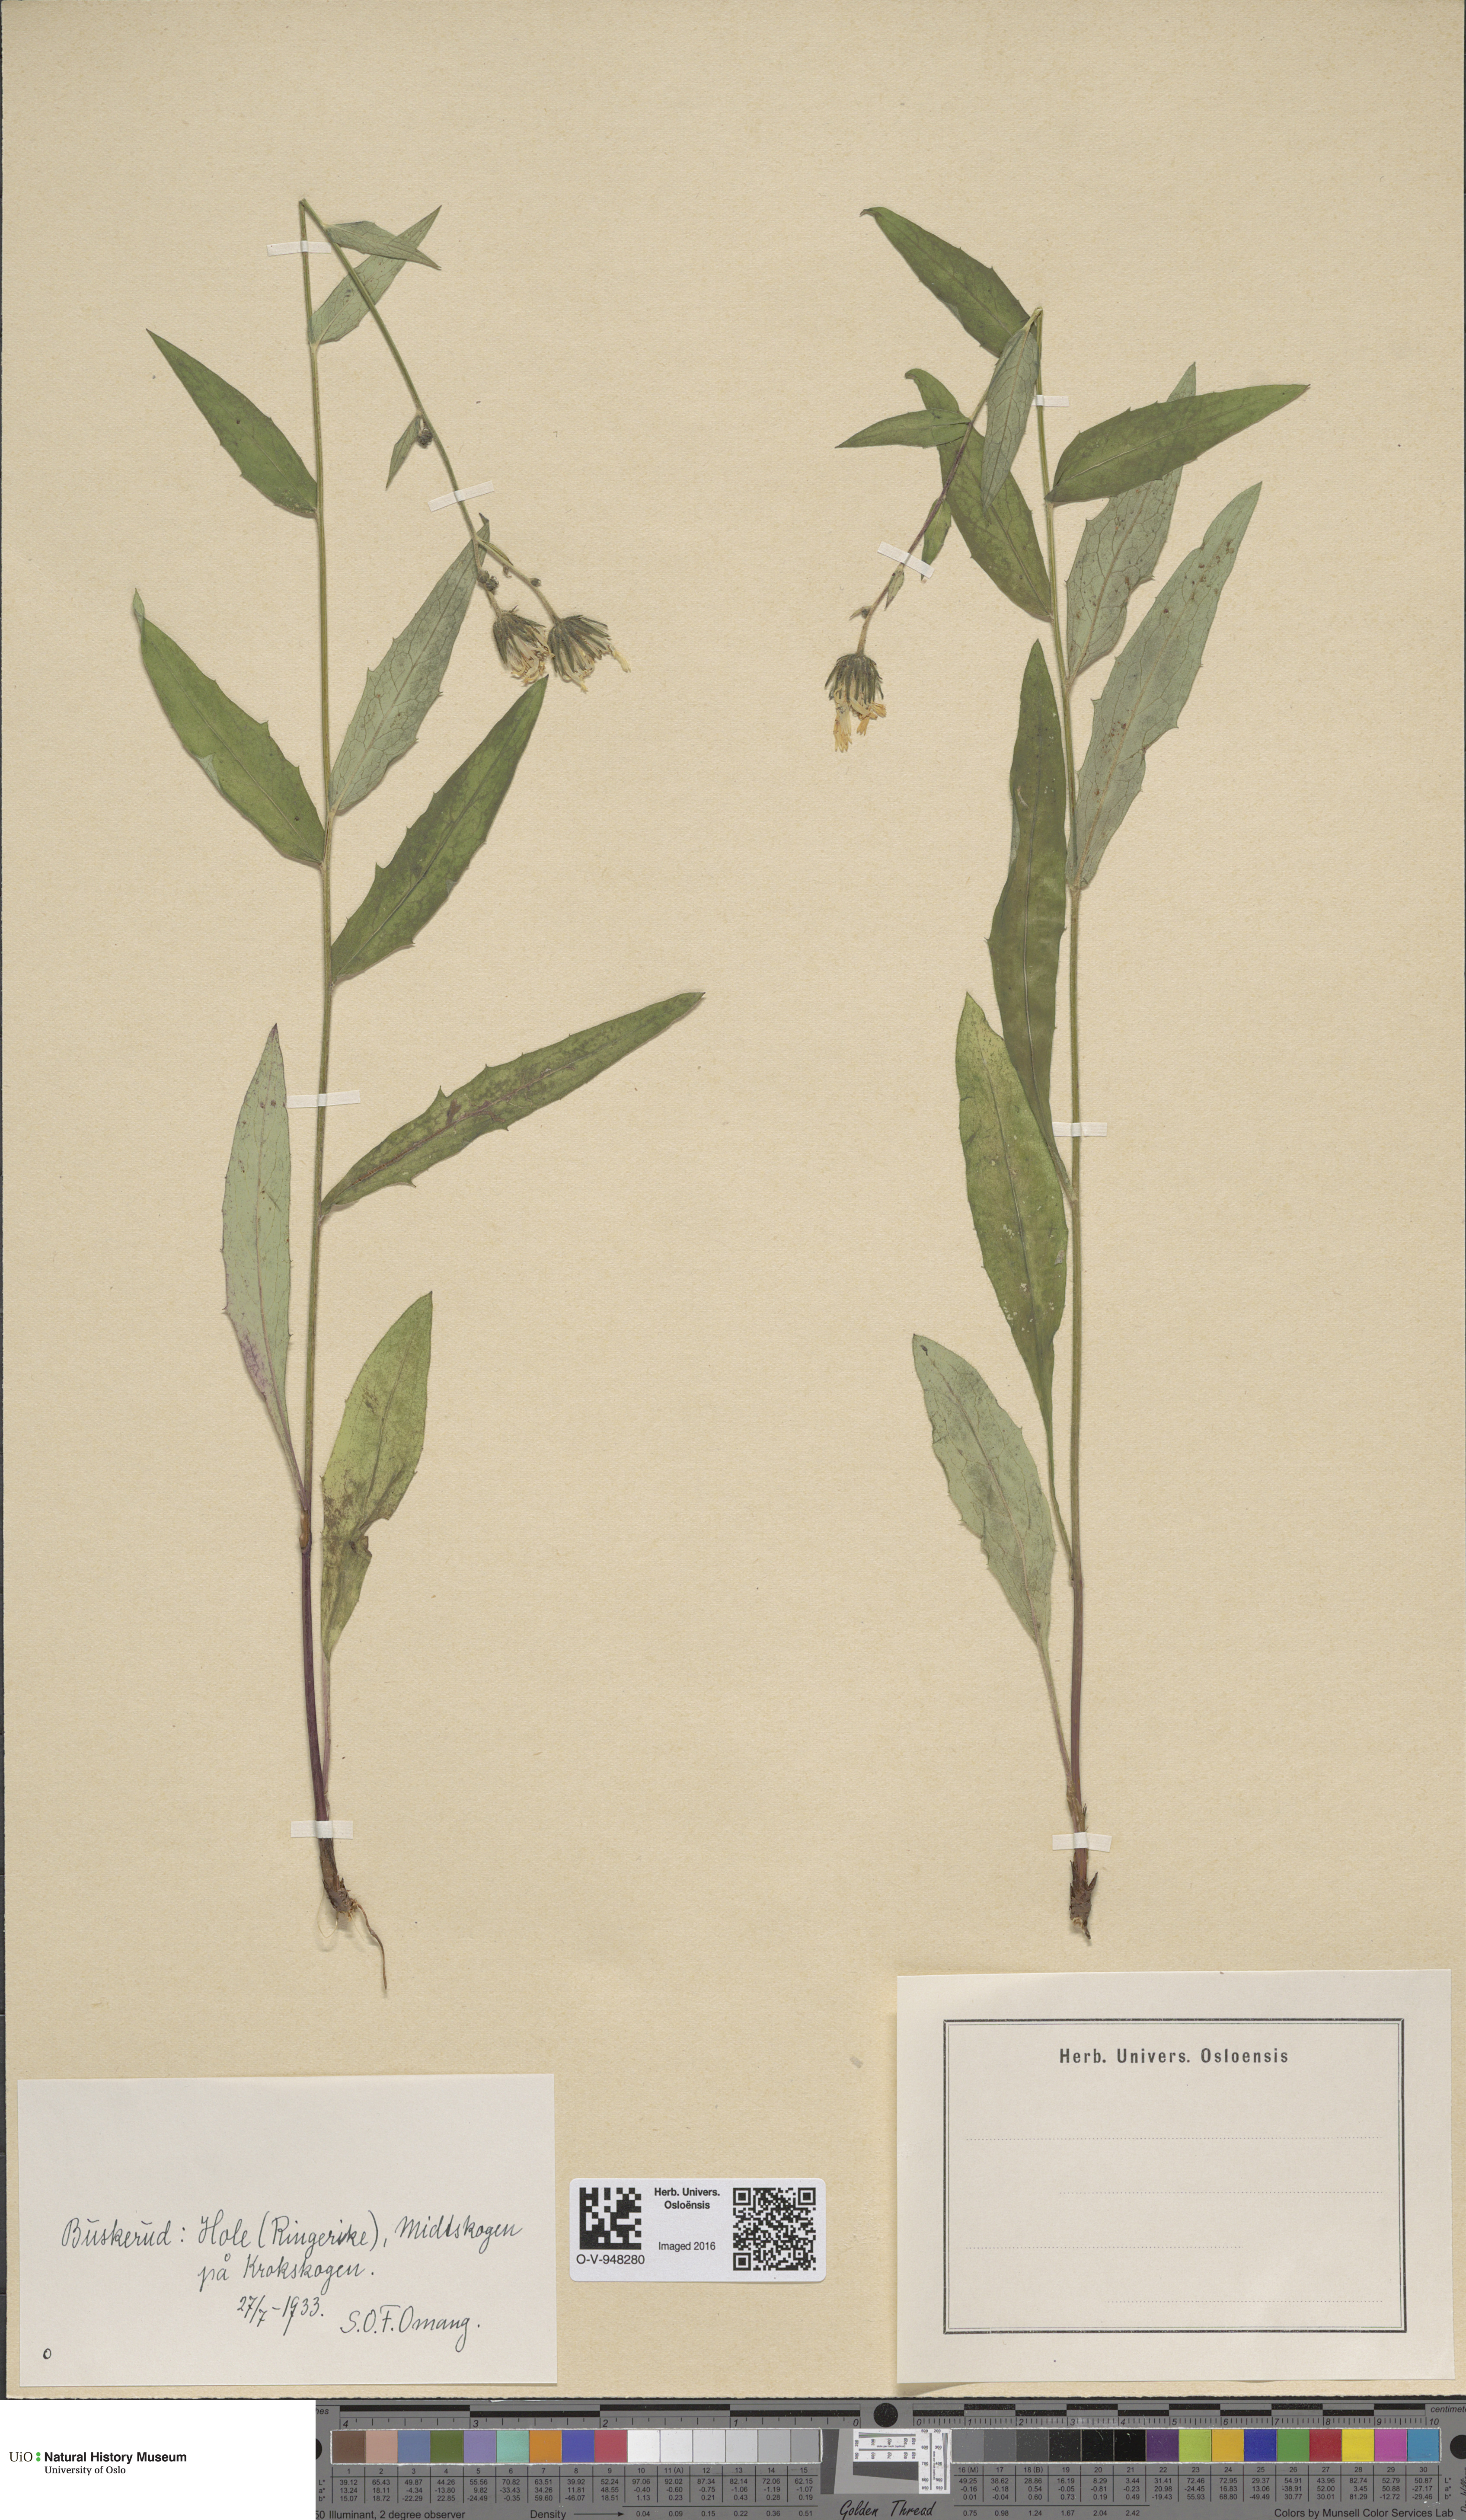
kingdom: Plantae
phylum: Tracheophyta
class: Magnoliopsida
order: Asterales
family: Asteraceae
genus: Hieracium
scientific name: Hieracium
